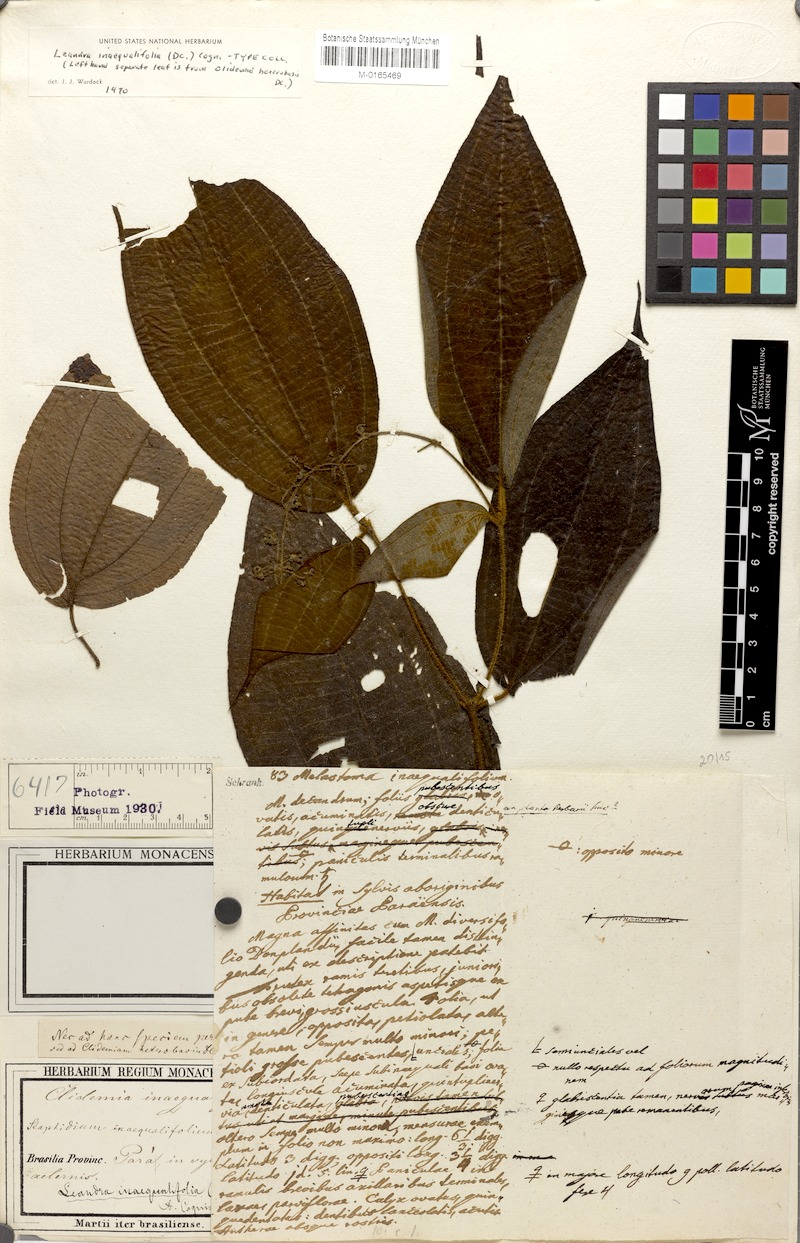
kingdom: Plantae
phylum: Tracheophyta
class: Magnoliopsida
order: Myrtales
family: Melastomataceae
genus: Miconia
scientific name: Miconia inaequalis
